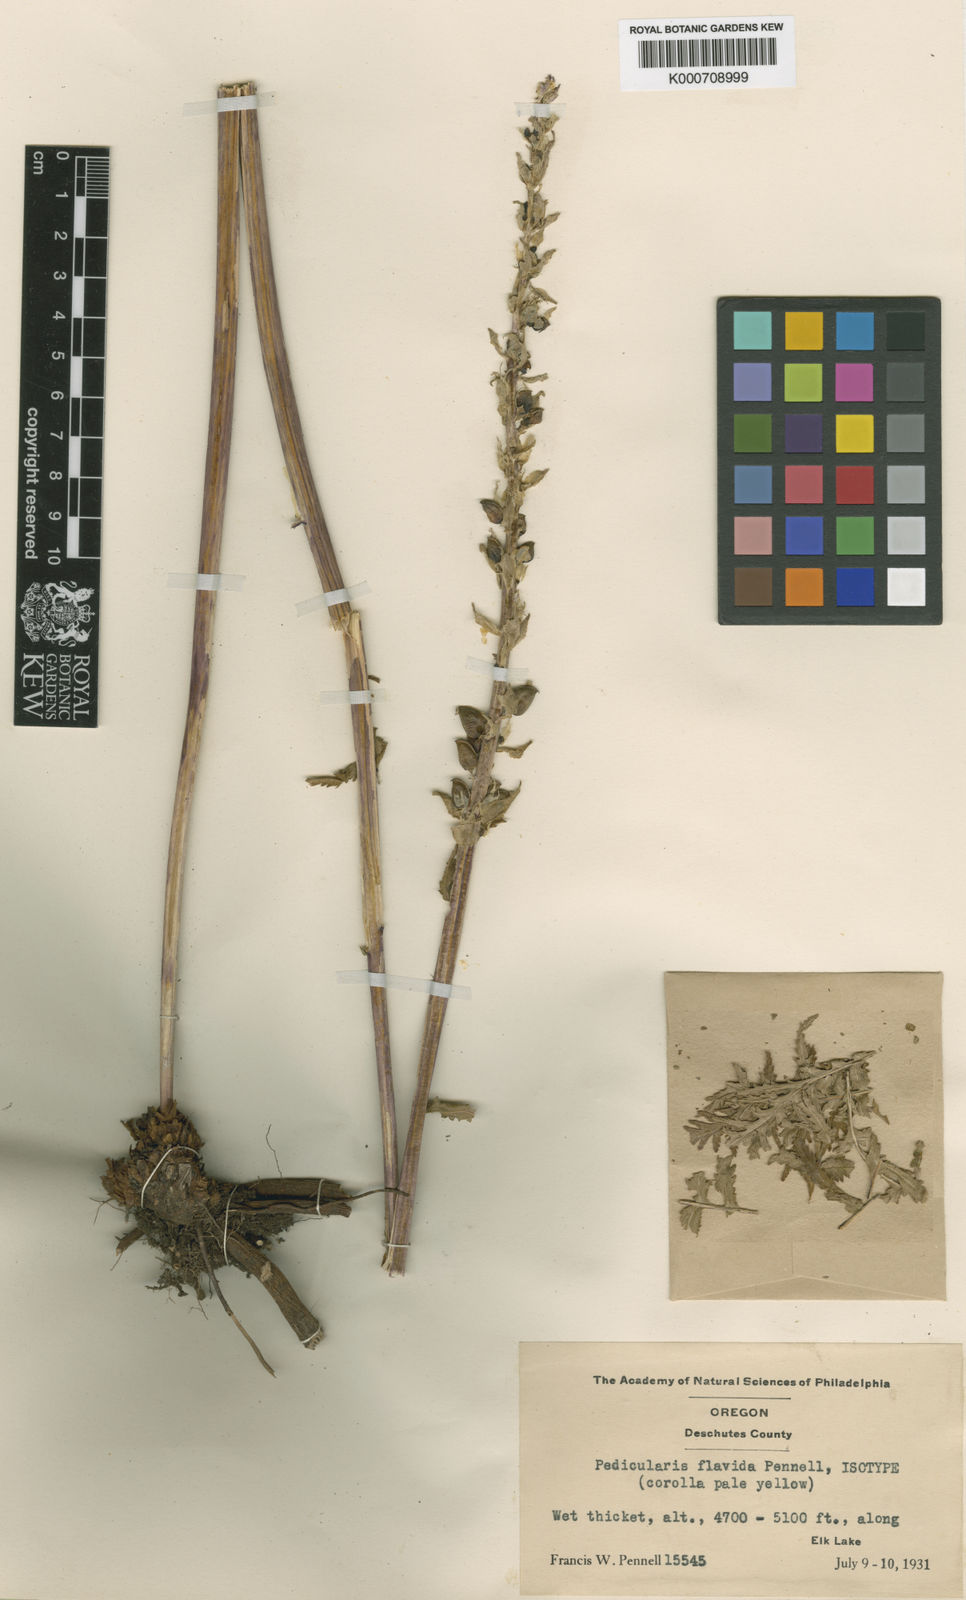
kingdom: Plantae
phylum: Tracheophyta
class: Magnoliopsida
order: Lamiales
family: Orobanchaceae
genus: Pedicularis
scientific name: Pedicularis bracteosa
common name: Bracted lousewort
